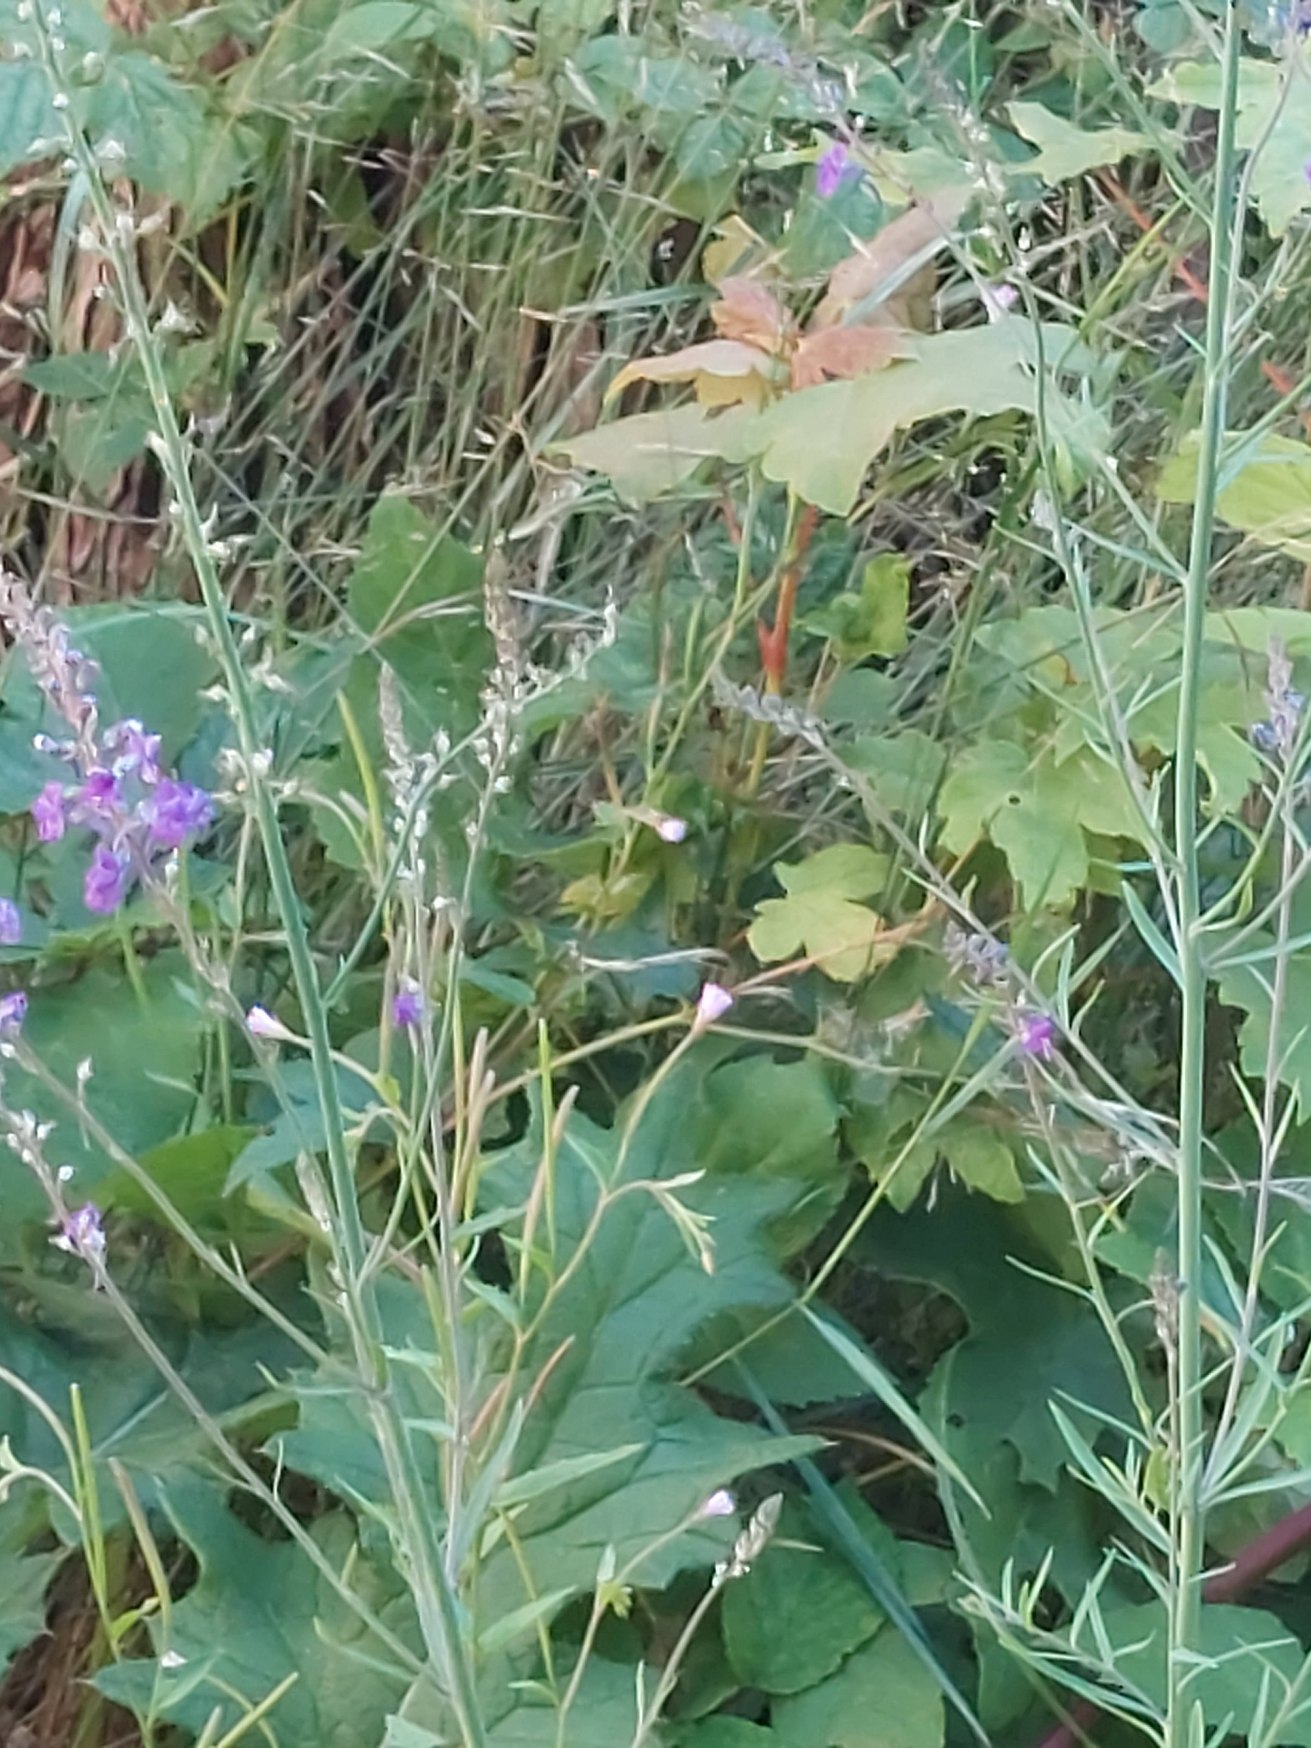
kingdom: Plantae
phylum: Tracheophyta
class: Magnoliopsida
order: Lamiales
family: Plantaginaceae
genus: Linaria
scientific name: Linaria purpurea
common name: Purpur-torskemund
